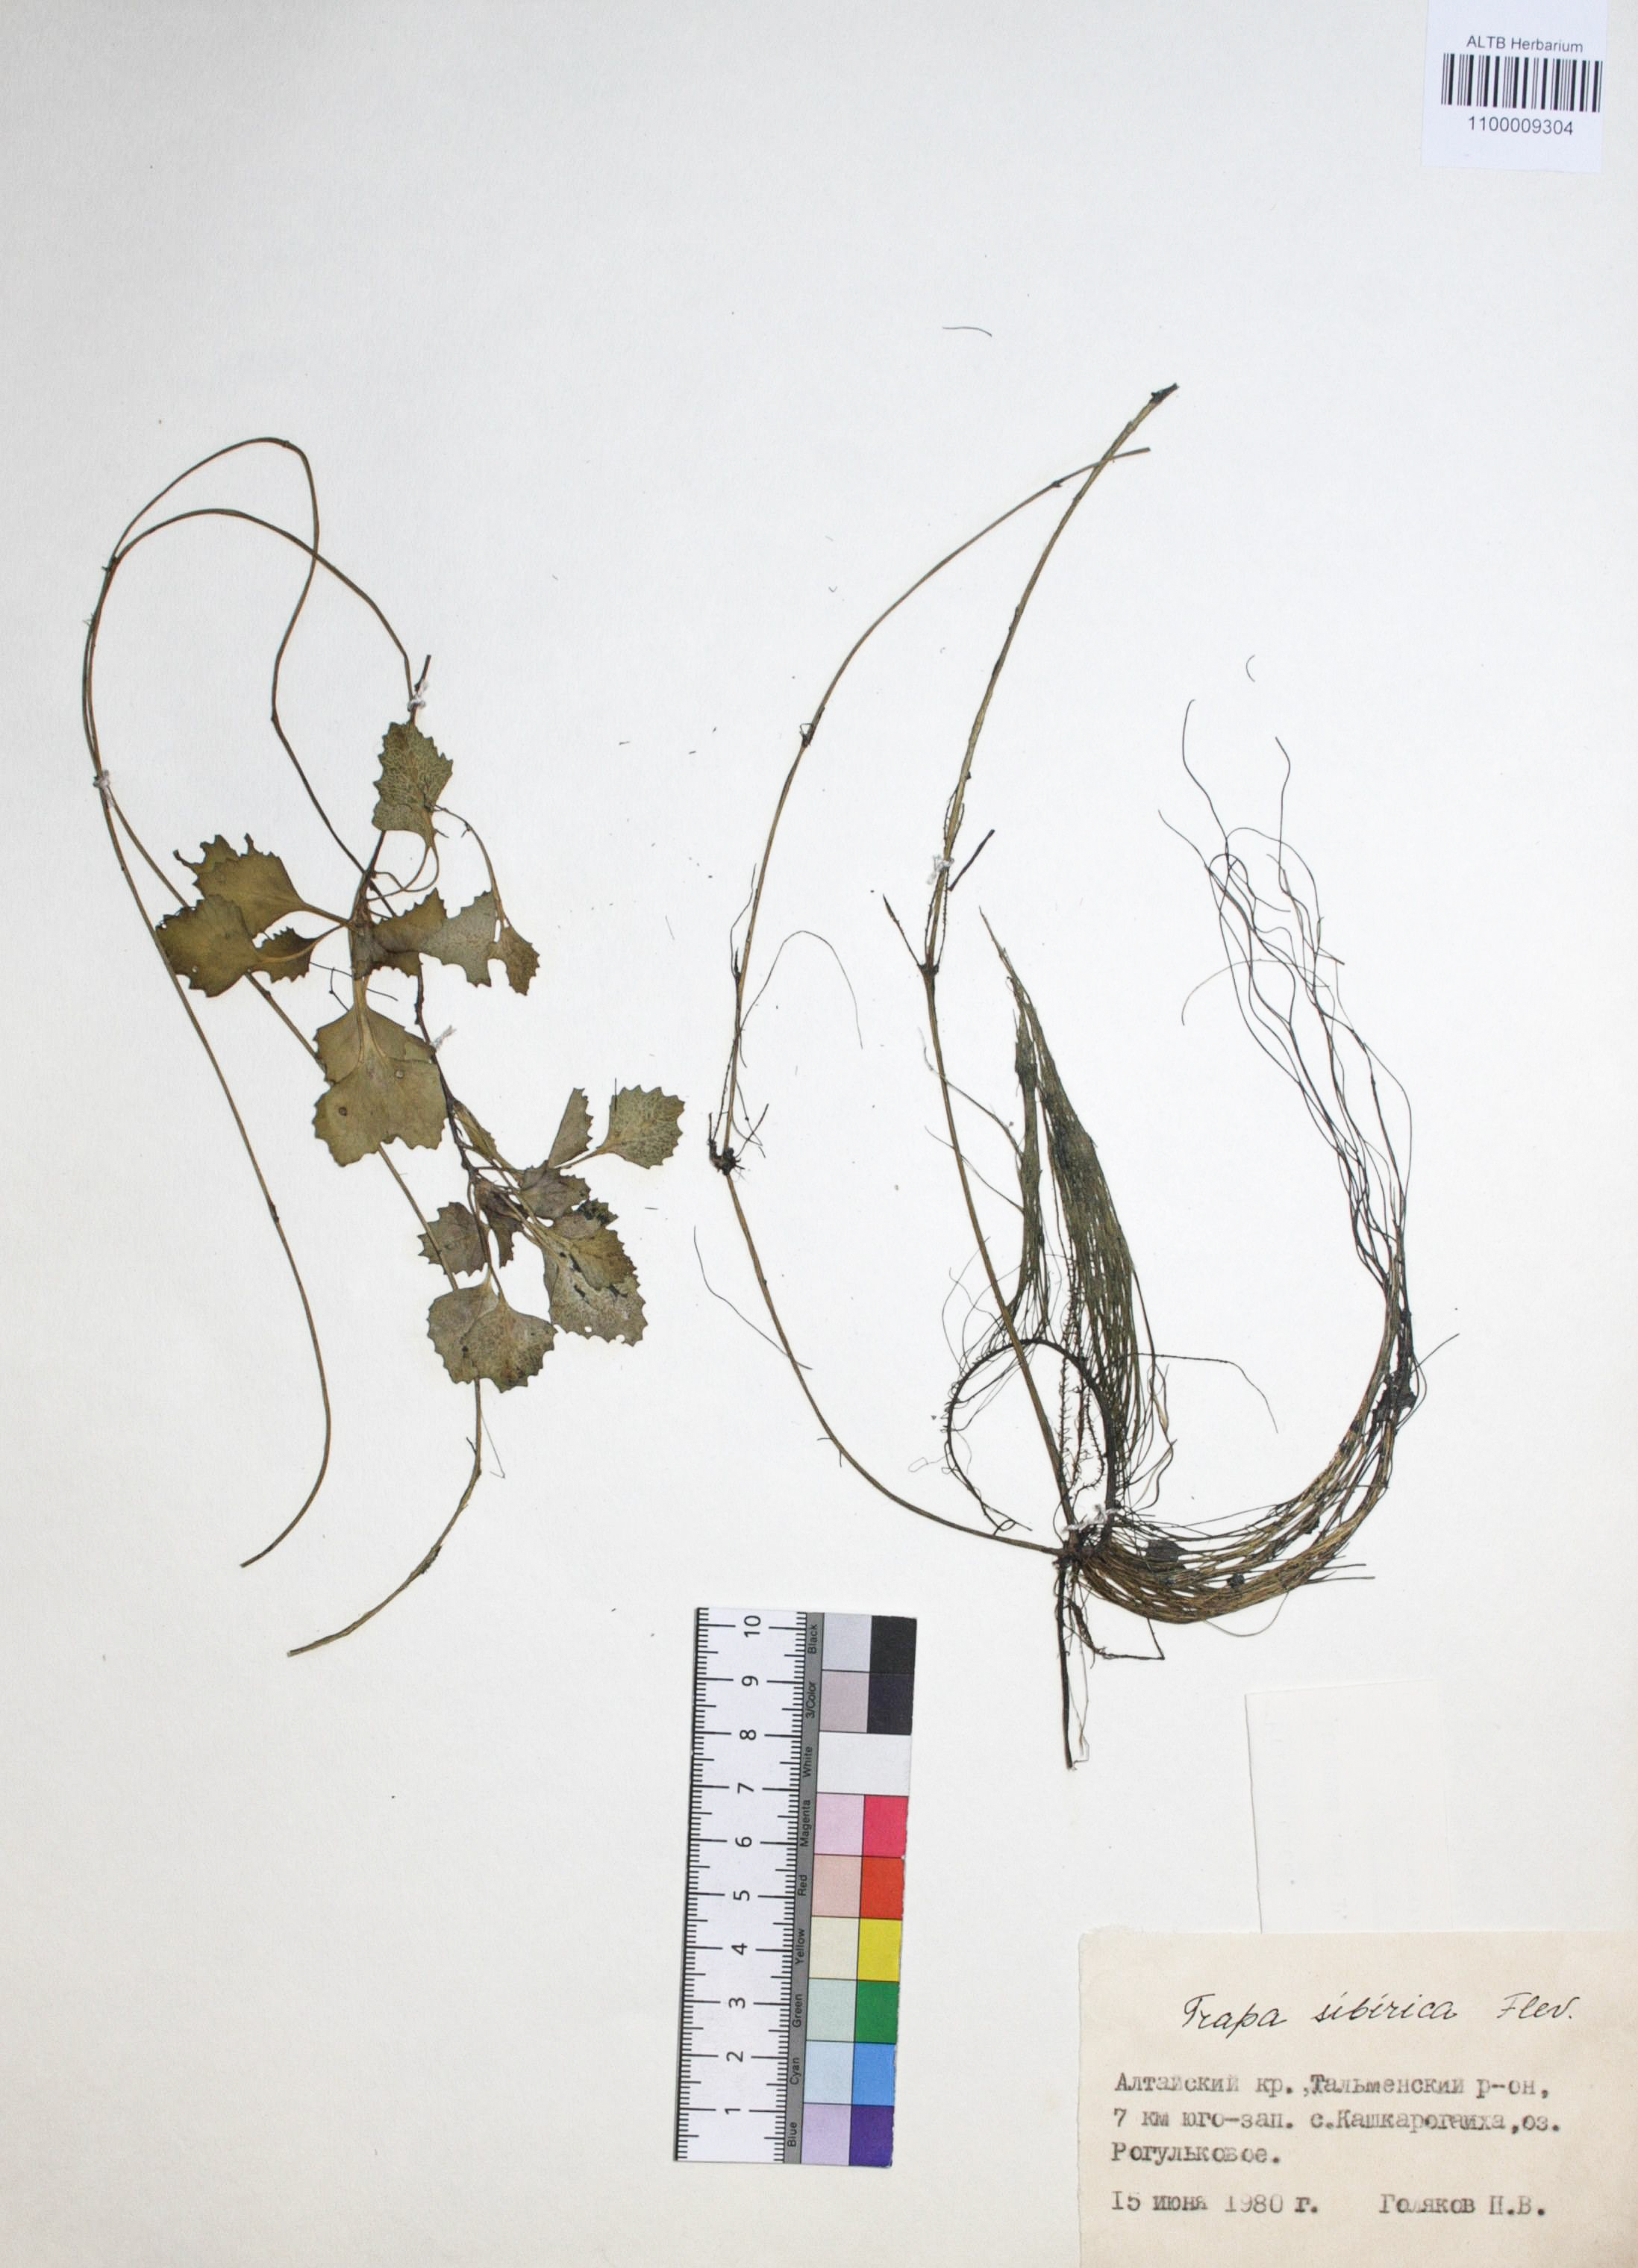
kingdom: Plantae
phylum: Tracheophyta
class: Magnoliopsida
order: Myrtales
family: Lythraceae
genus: Trapa
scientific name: Trapa natans
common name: Water chestnut
